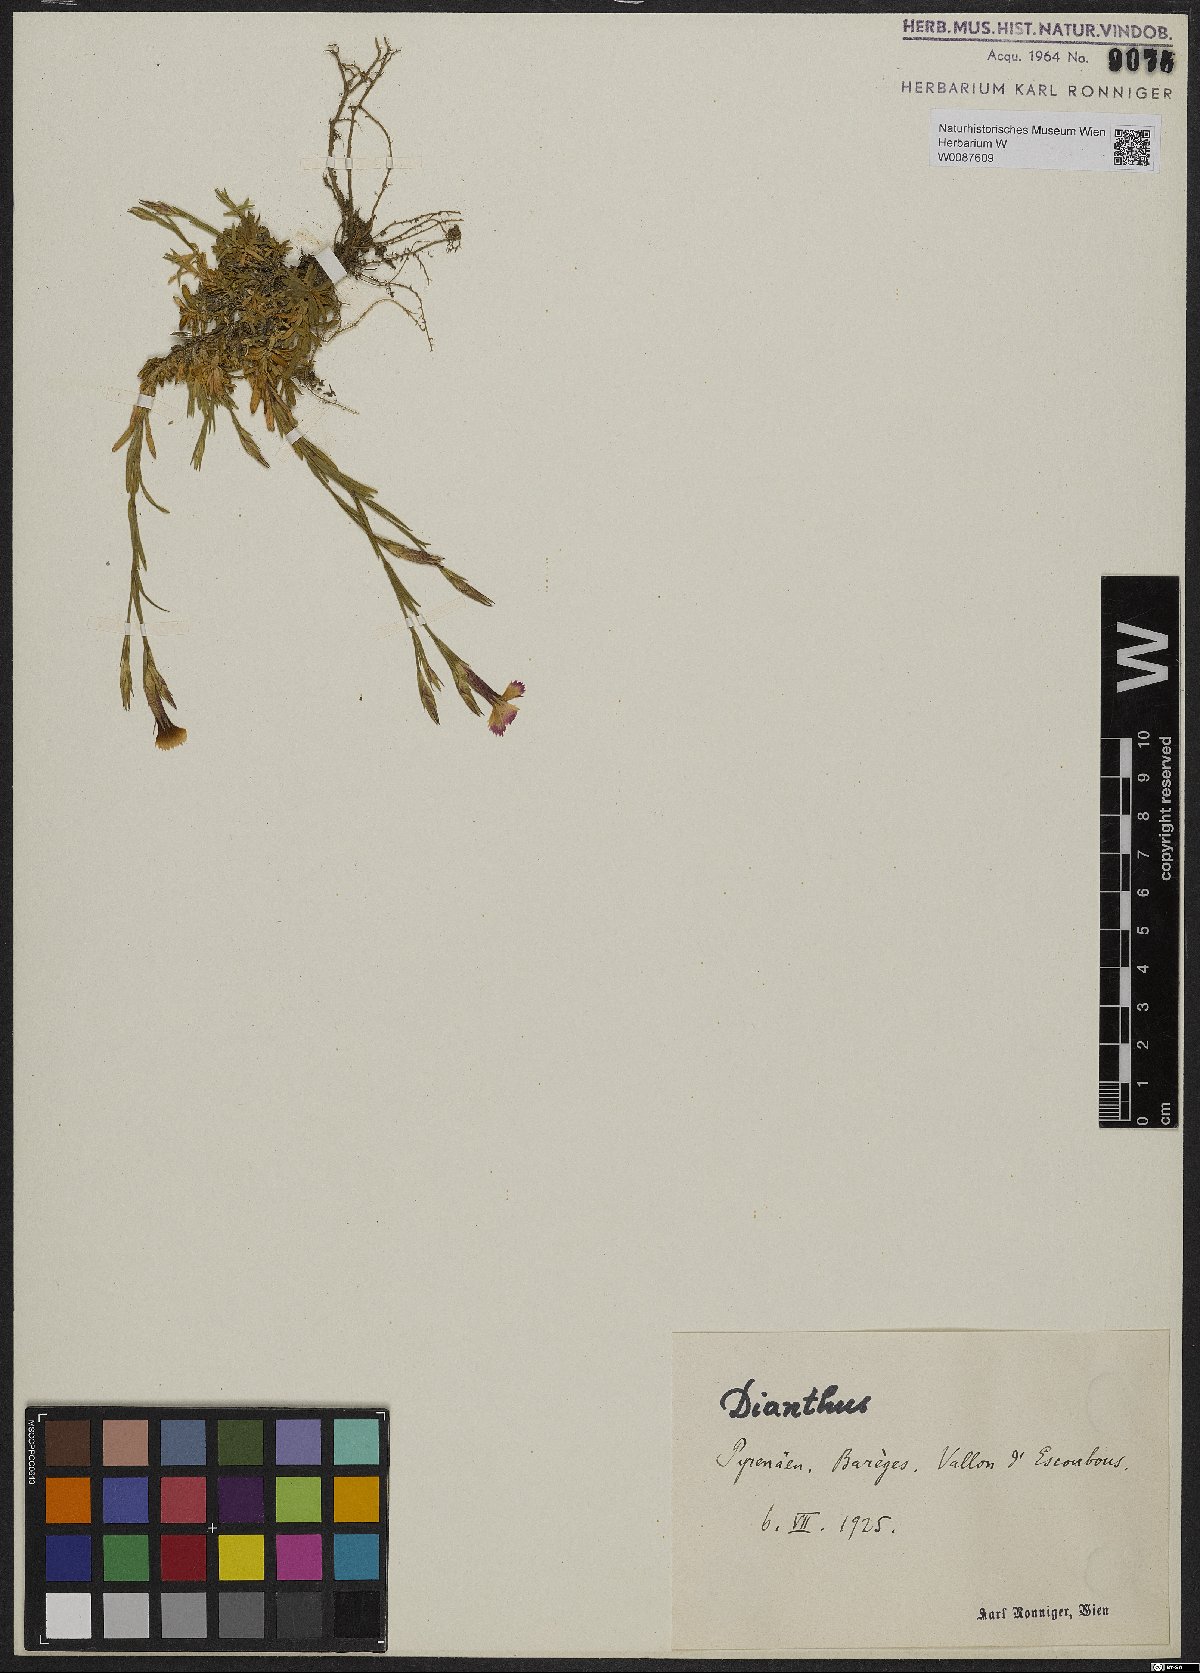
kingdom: Plantae
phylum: Tracheophyta
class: Magnoliopsida
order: Caryophyllales
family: Caryophyllaceae
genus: Dianthus
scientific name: Dianthus
